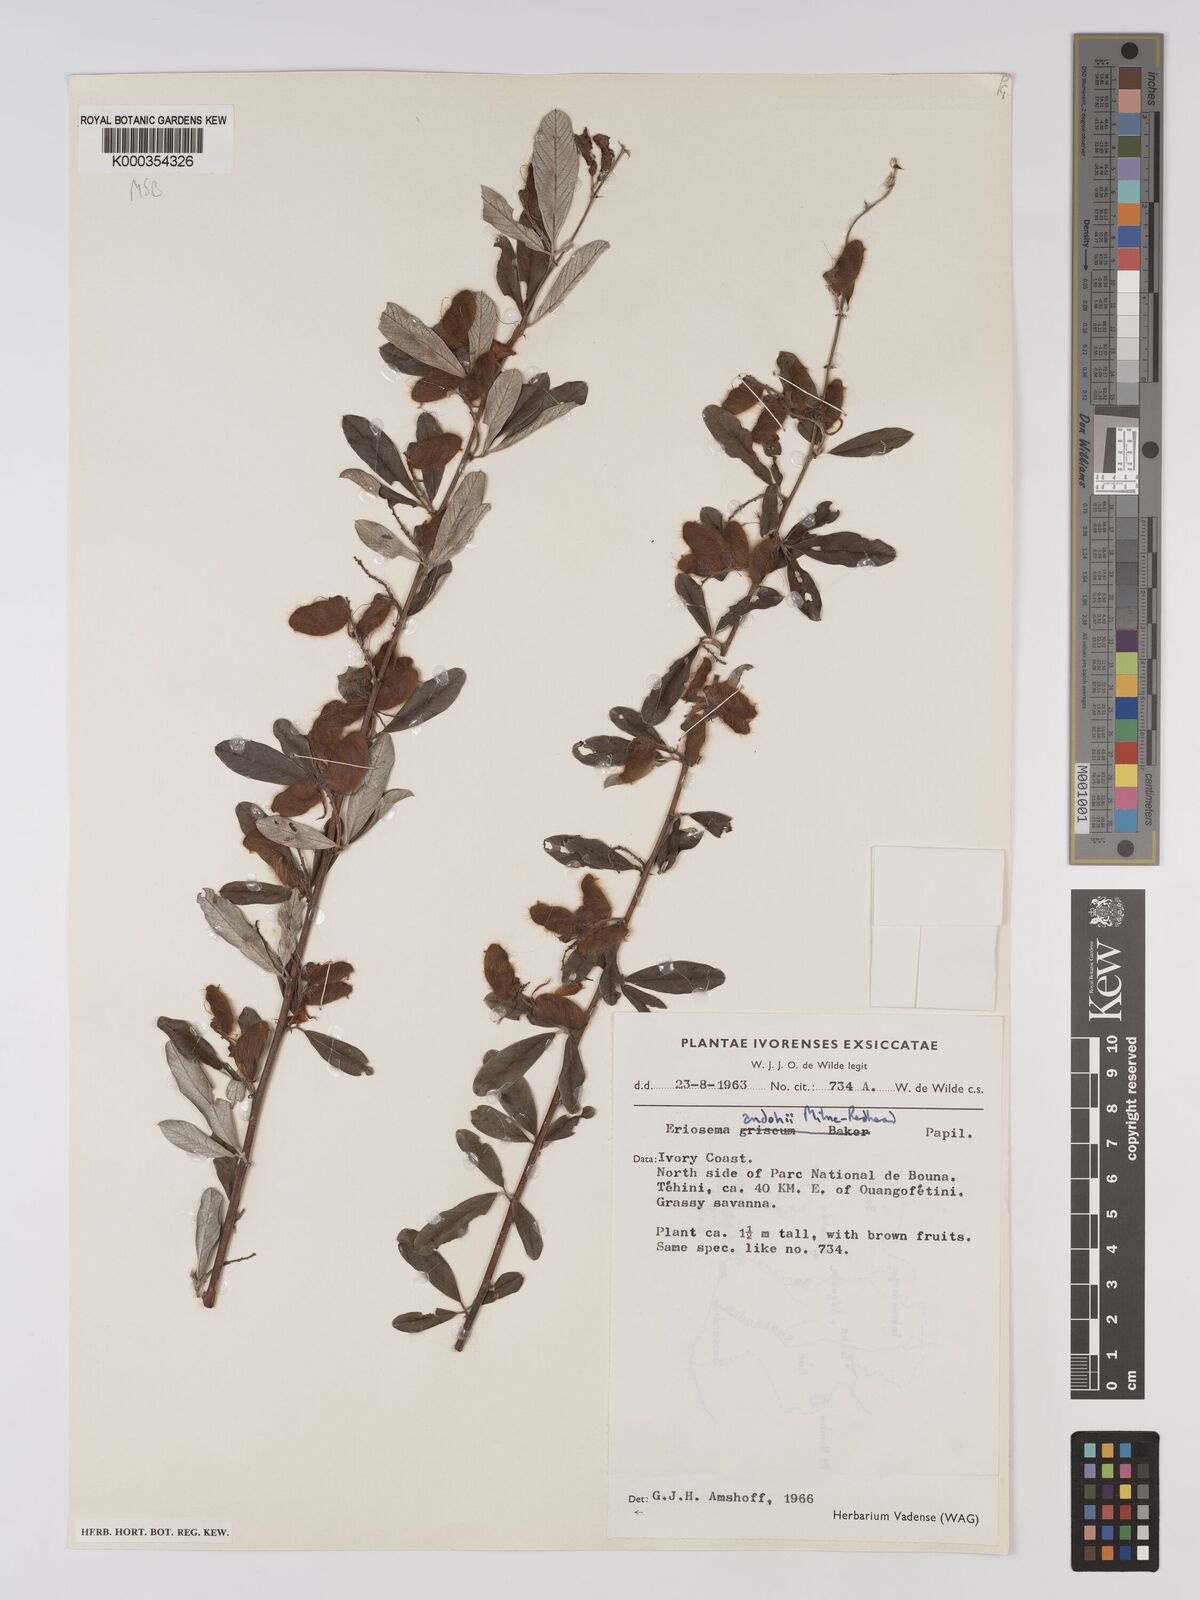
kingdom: Plantae
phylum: Tracheophyta
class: Magnoliopsida
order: Fabales
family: Fabaceae
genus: Eriosema
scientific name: Eriosema andohii
